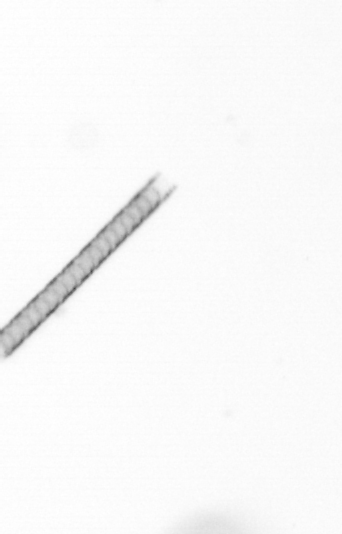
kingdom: Chromista
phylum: Ochrophyta
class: Bacillariophyceae
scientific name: Bacillariophyceae
